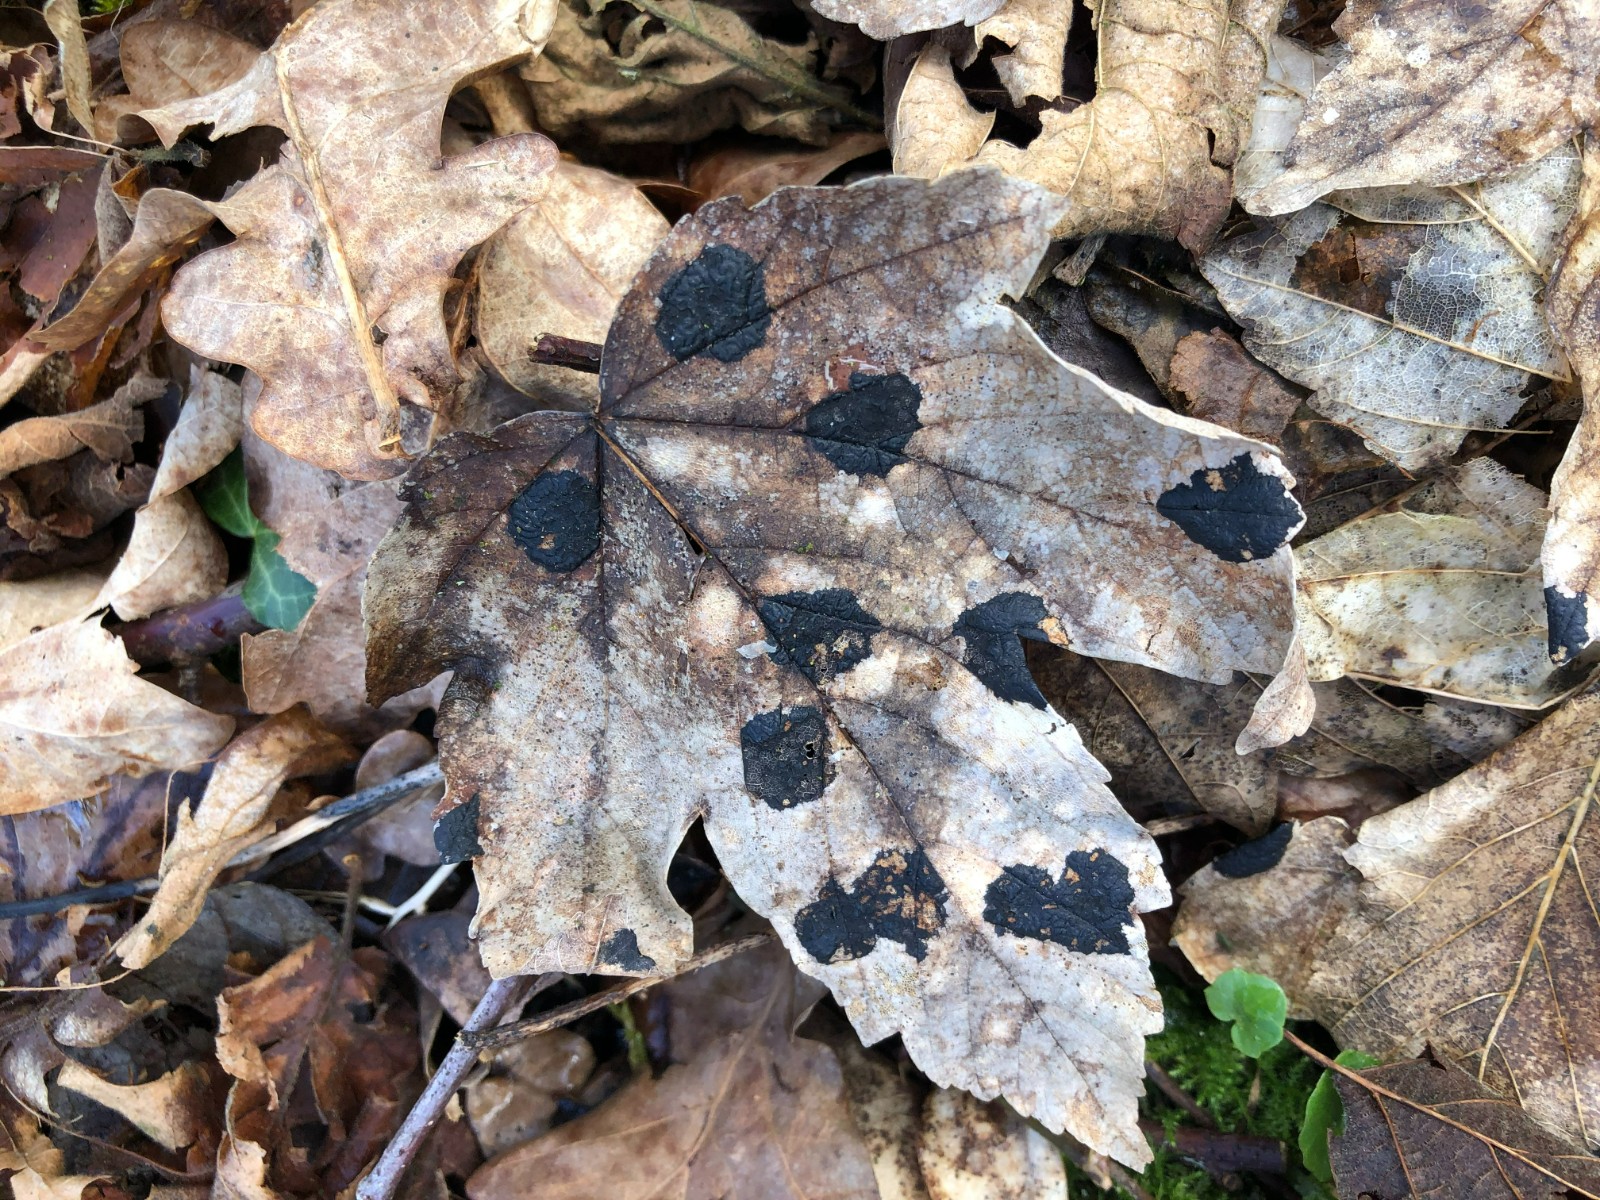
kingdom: Fungi
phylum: Ascomycota
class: Leotiomycetes
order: Rhytismatales
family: Rhytismataceae
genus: Rhytisma
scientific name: Rhytisma acerinum
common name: ahorn-rynkeplet
